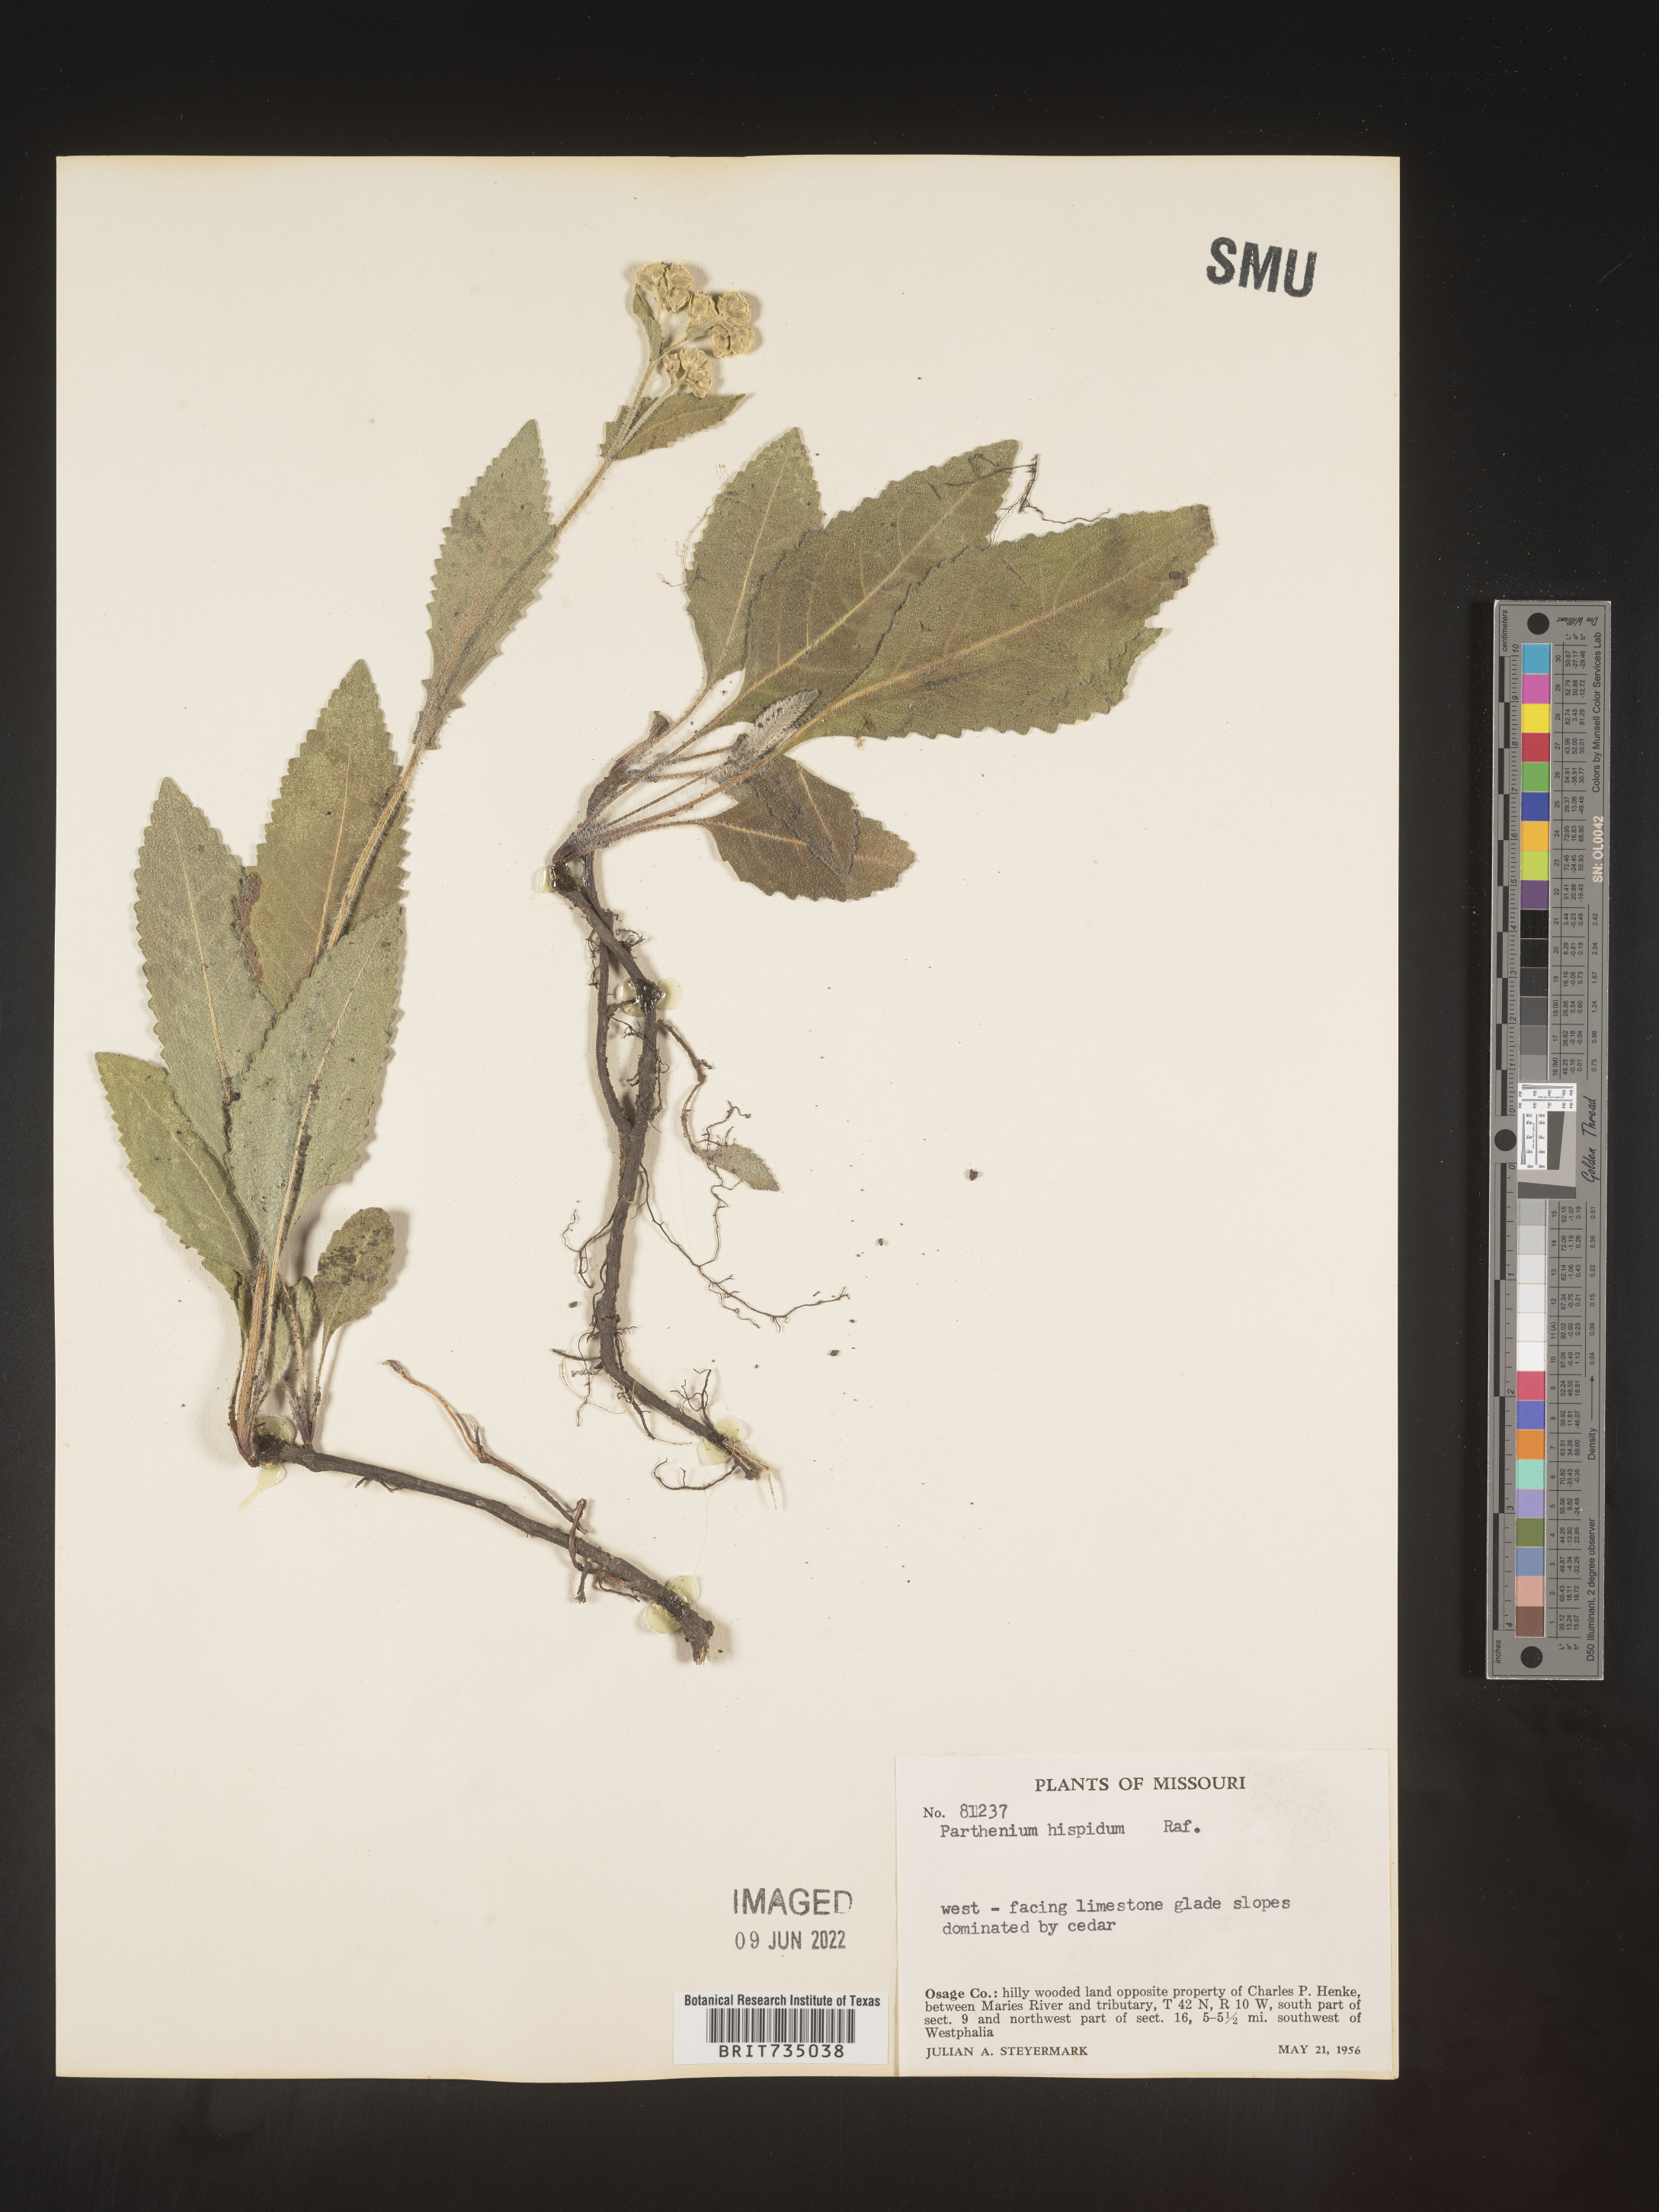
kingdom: Plantae
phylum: Tracheophyta
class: Magnoliopsida
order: Asterales
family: Asteraceae
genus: Parthenium
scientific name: Parthenium hispidum
